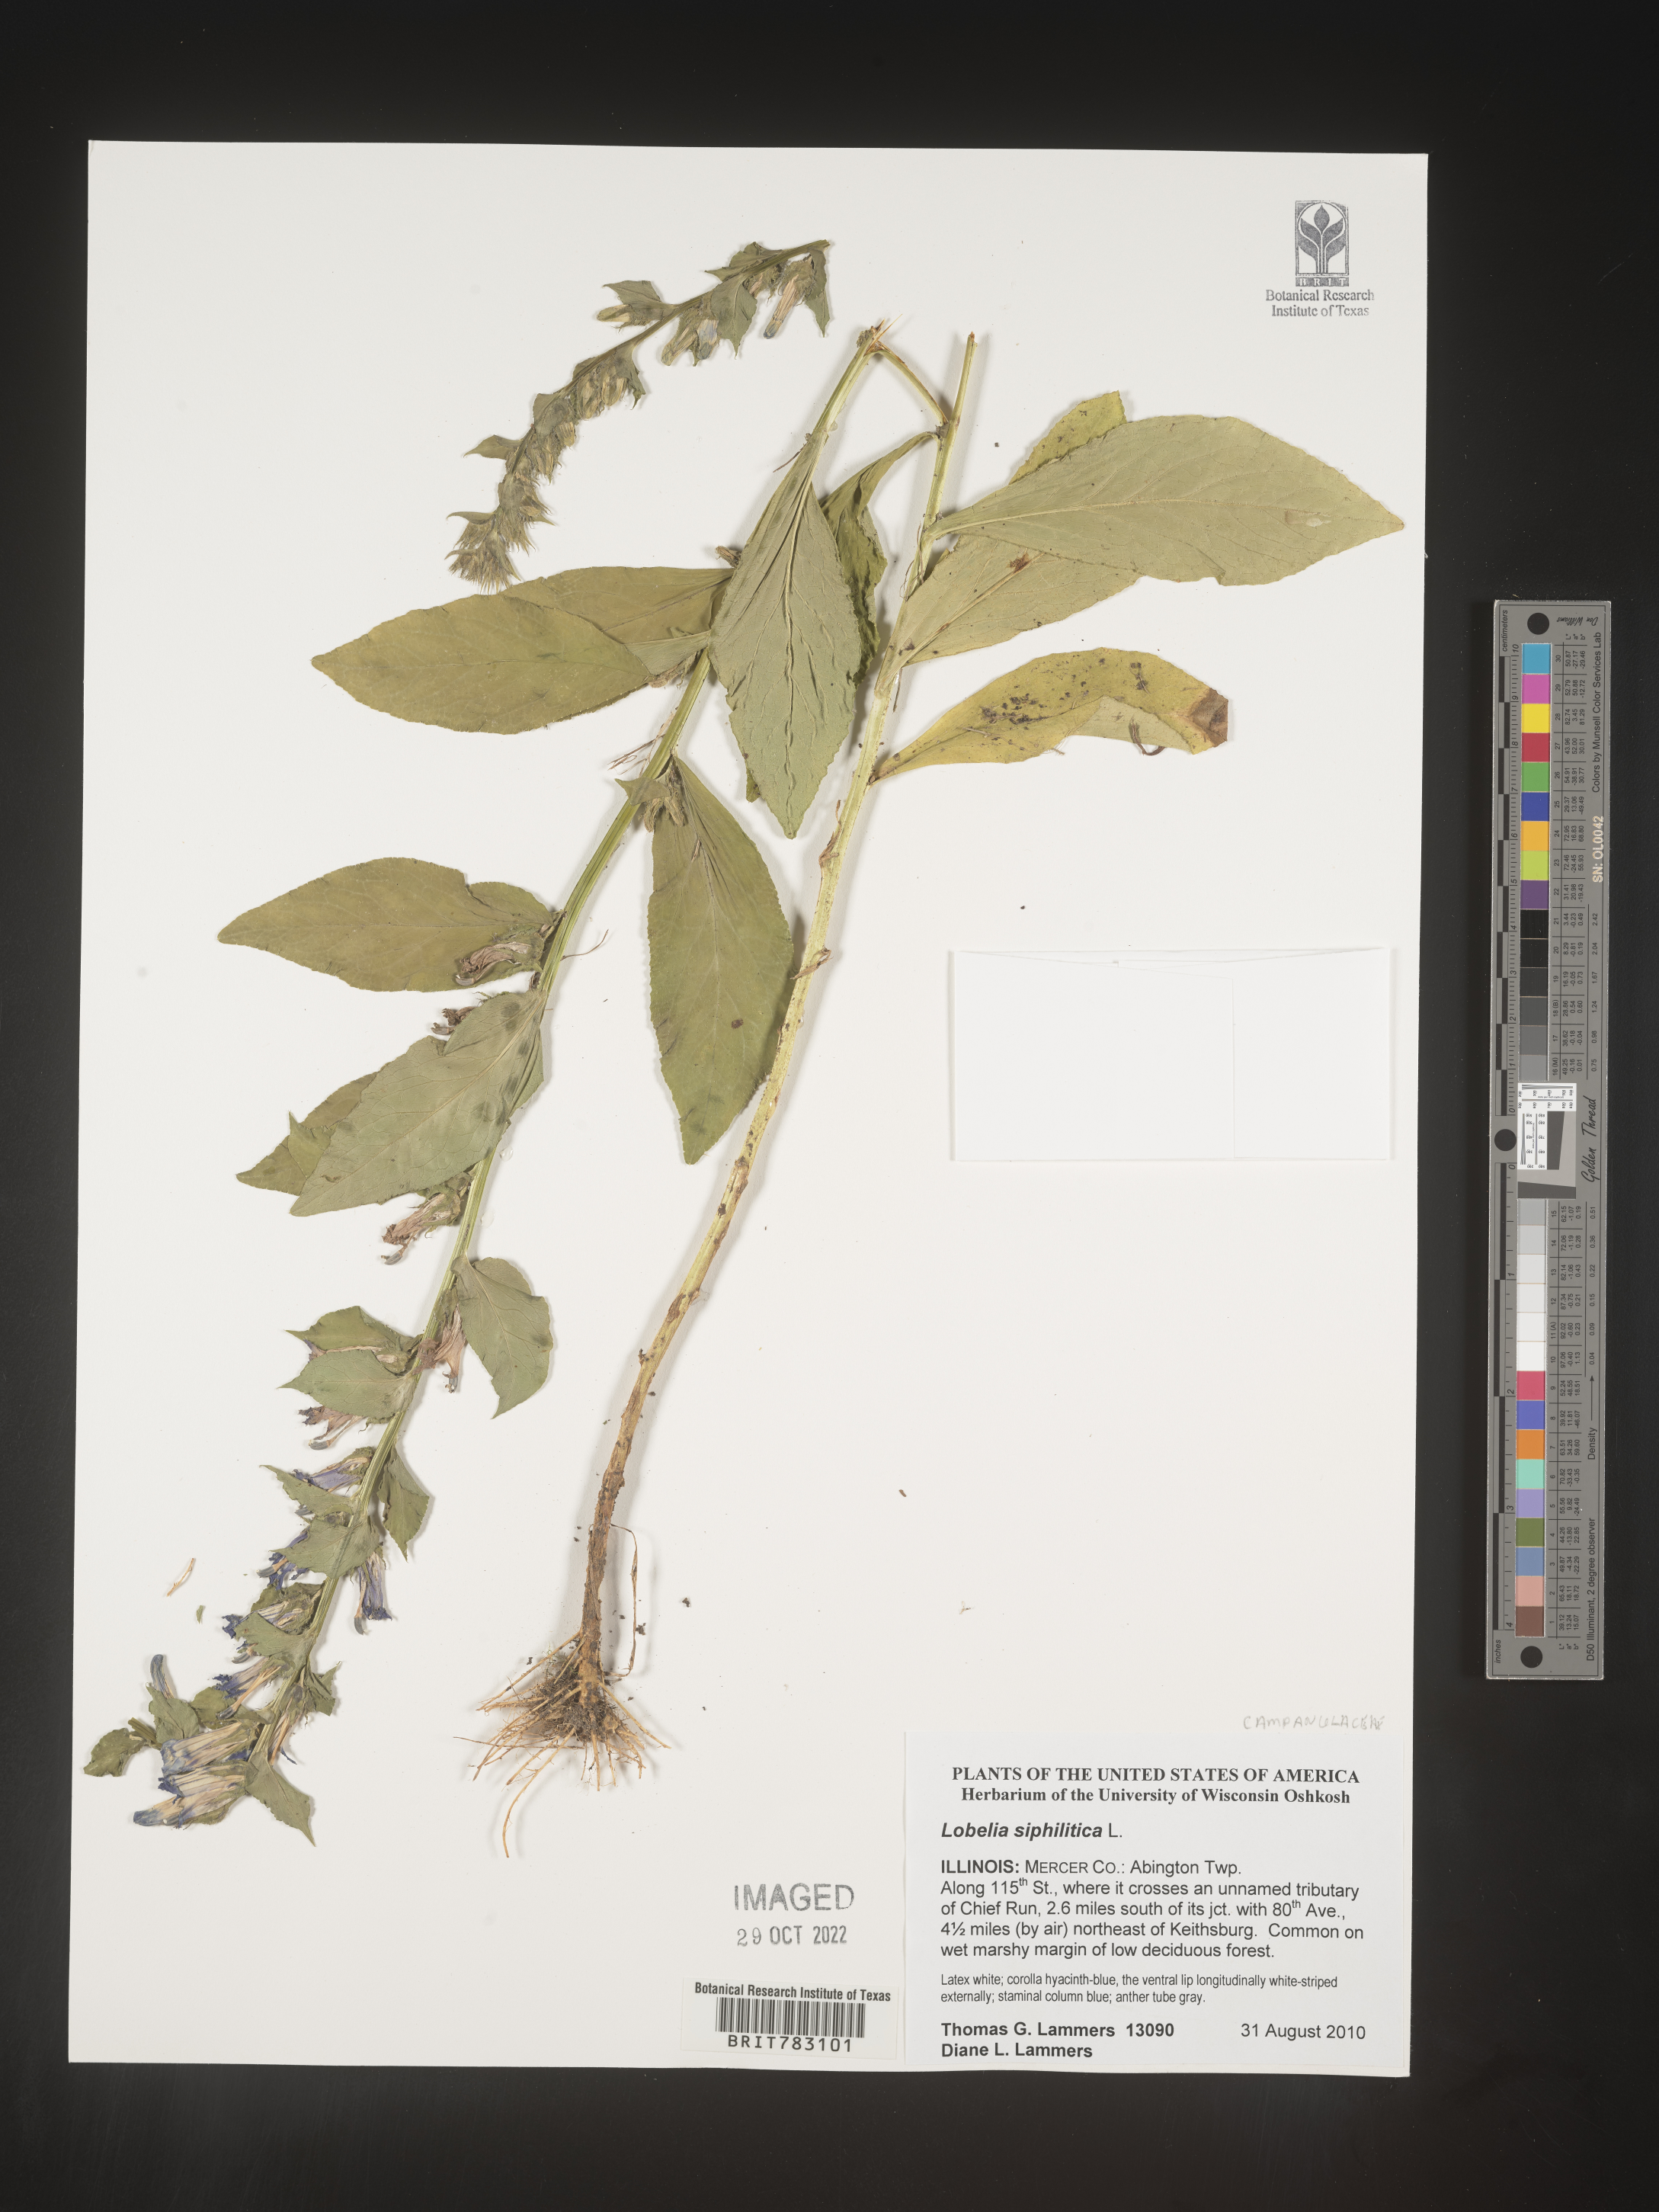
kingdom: Plantae
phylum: Tracheophyta
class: Magnoliopsida
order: Asterales
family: Campanulaceae
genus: Lobelia
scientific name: Lobelia siphilitica
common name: Great lobelia
